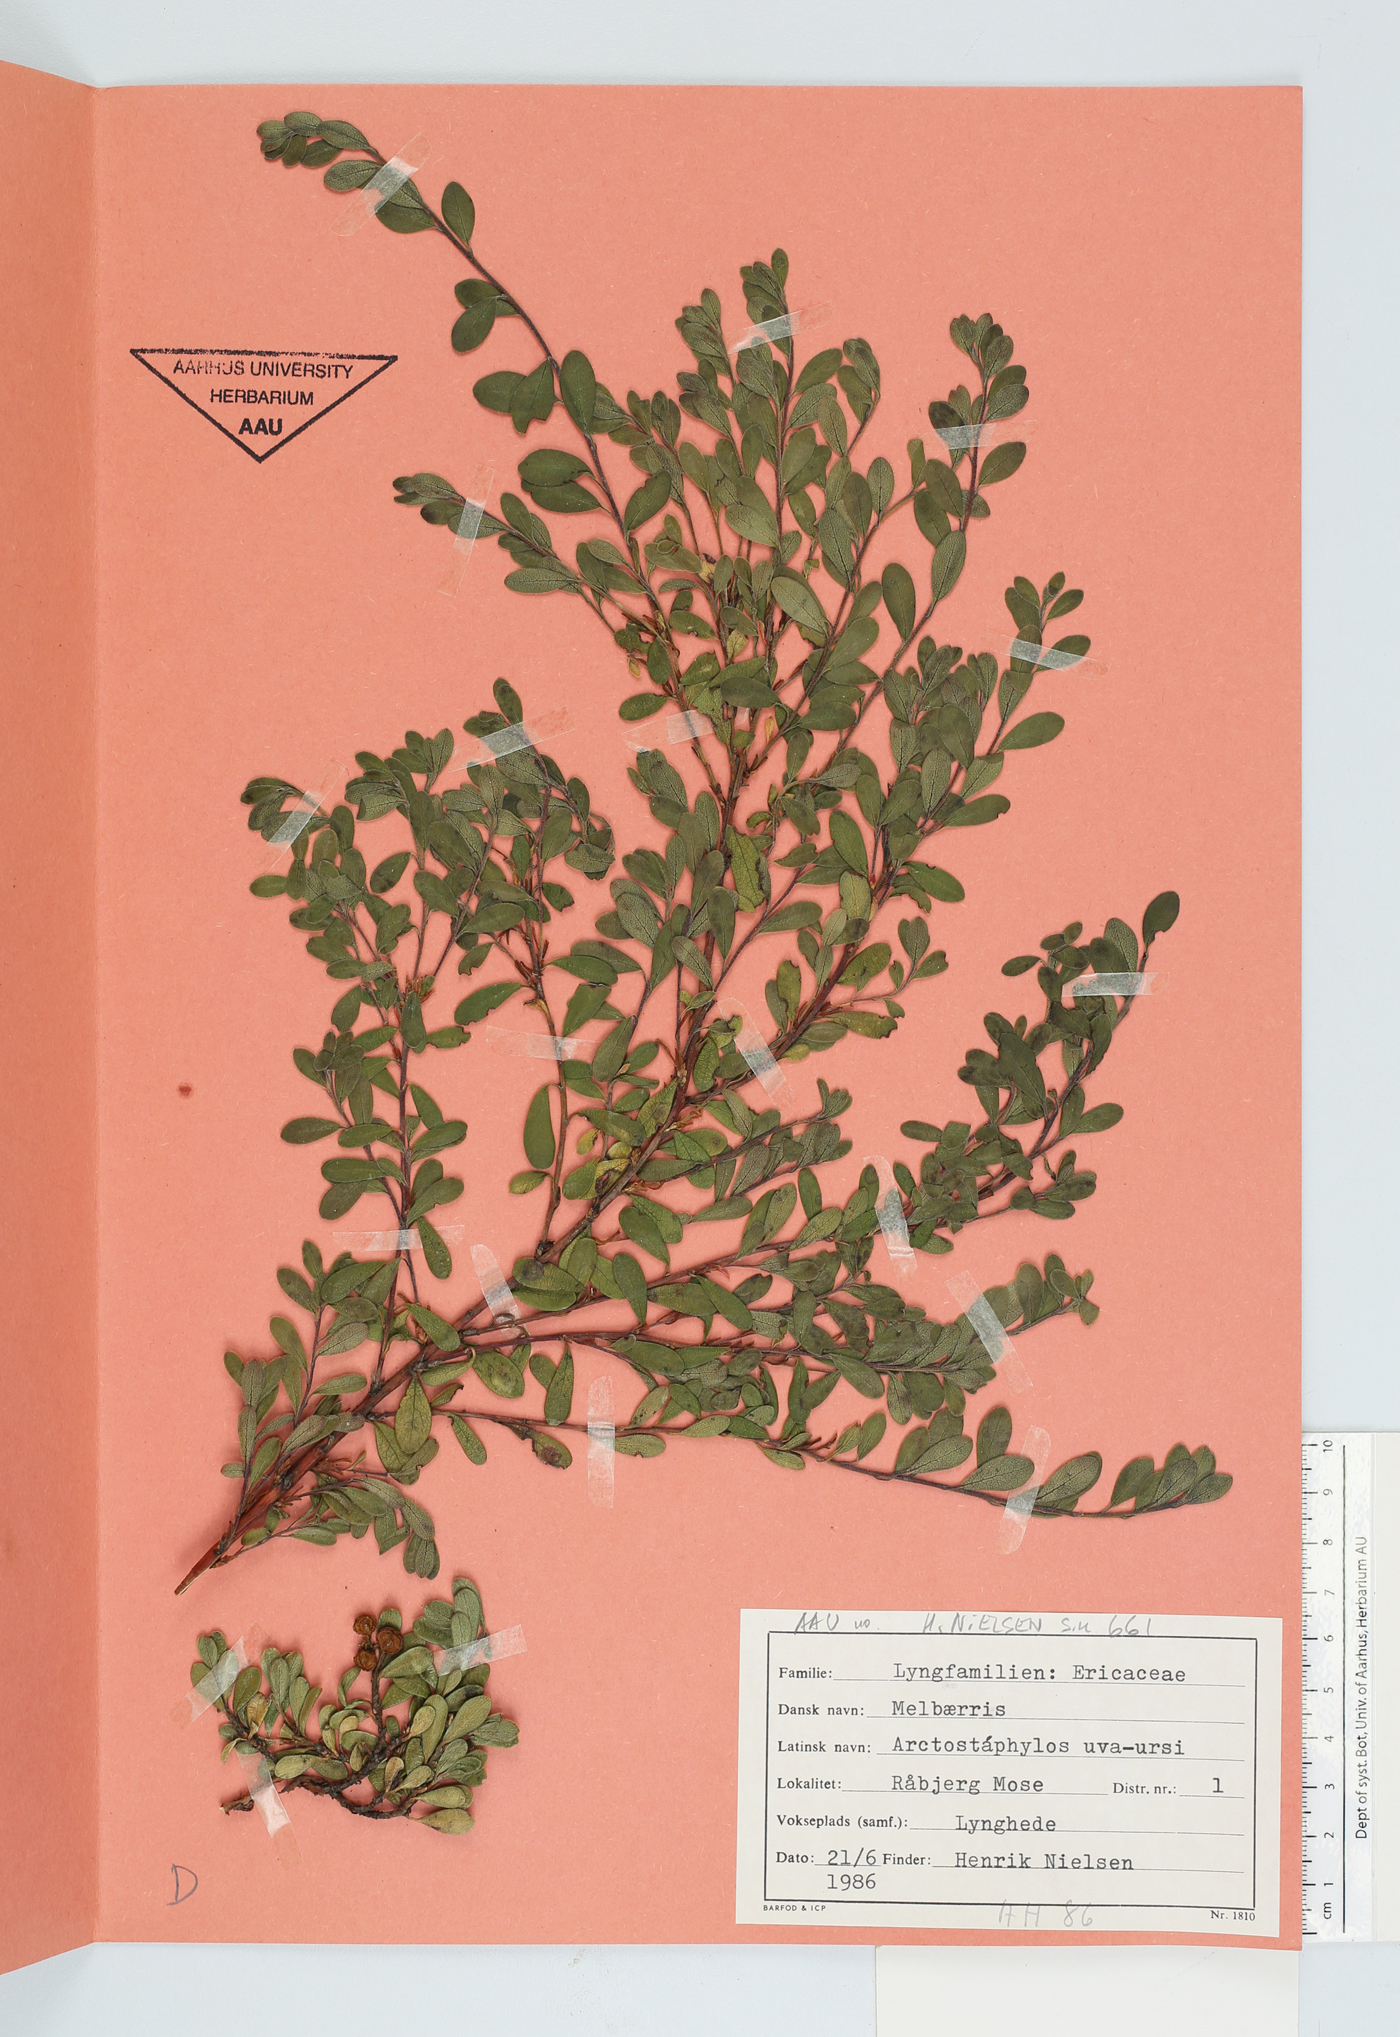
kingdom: Plantae
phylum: Tracheophyta
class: Magnoliopsida
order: Ericales
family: Ericaceae
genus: Arctostaphylos
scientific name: Arctostaphylos uva-ursi
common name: Bearberry
